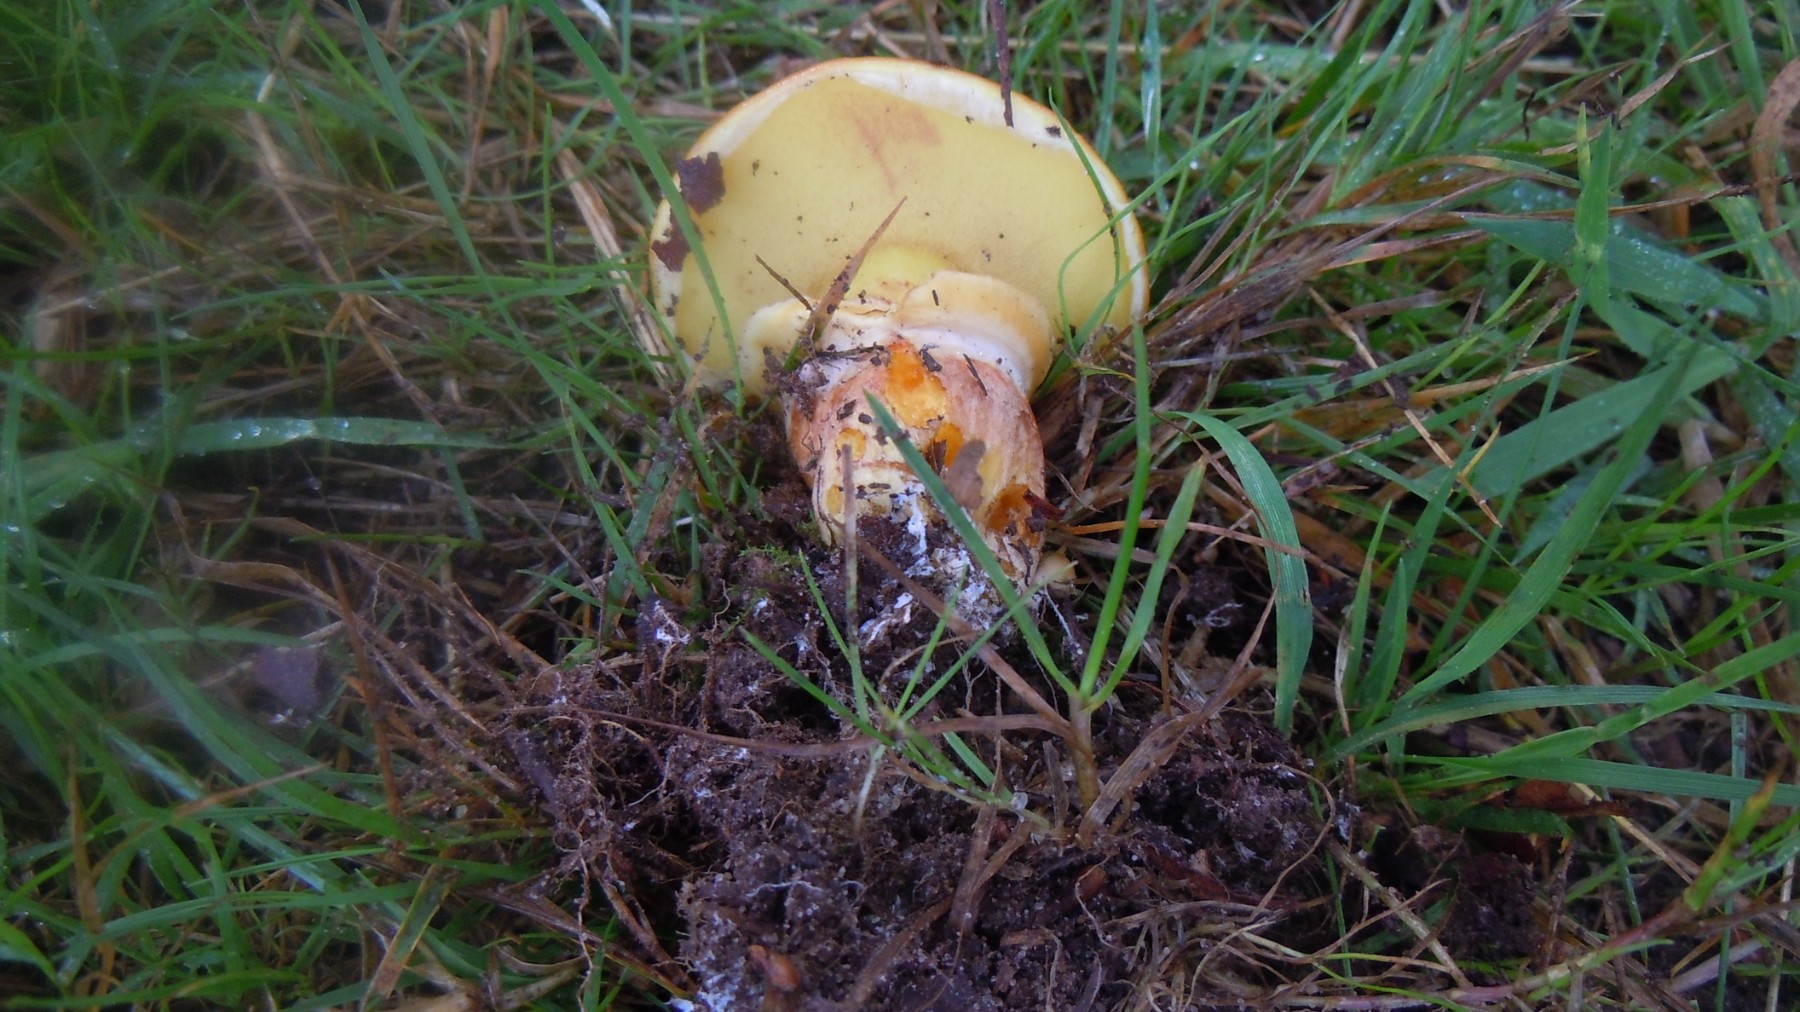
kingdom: Fungi
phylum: Basidiomycota
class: Agaricomycetes
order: Boletales
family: Suillaceae
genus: Suillus
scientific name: Suillus grevillei
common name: lærke-slimrørhat
